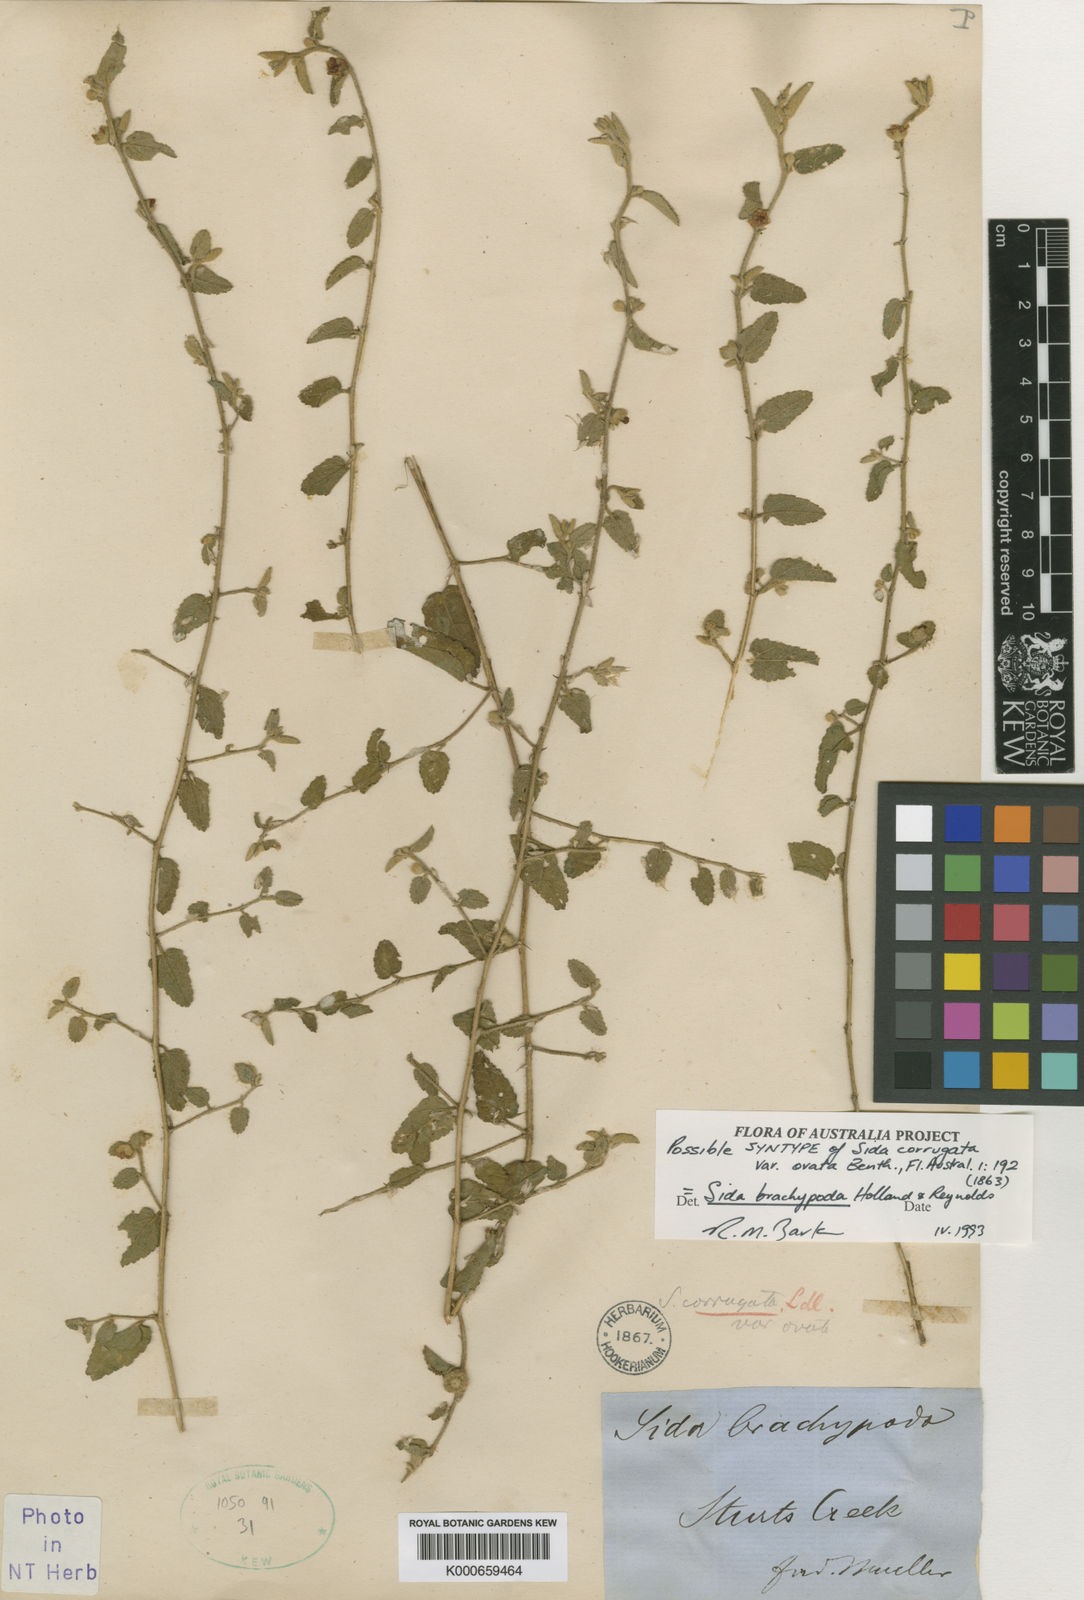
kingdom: Plantae
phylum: Tracheophyta
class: Magnoliopsida
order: Malvales
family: Malvaceae
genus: Sida
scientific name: Sida brachypoda
